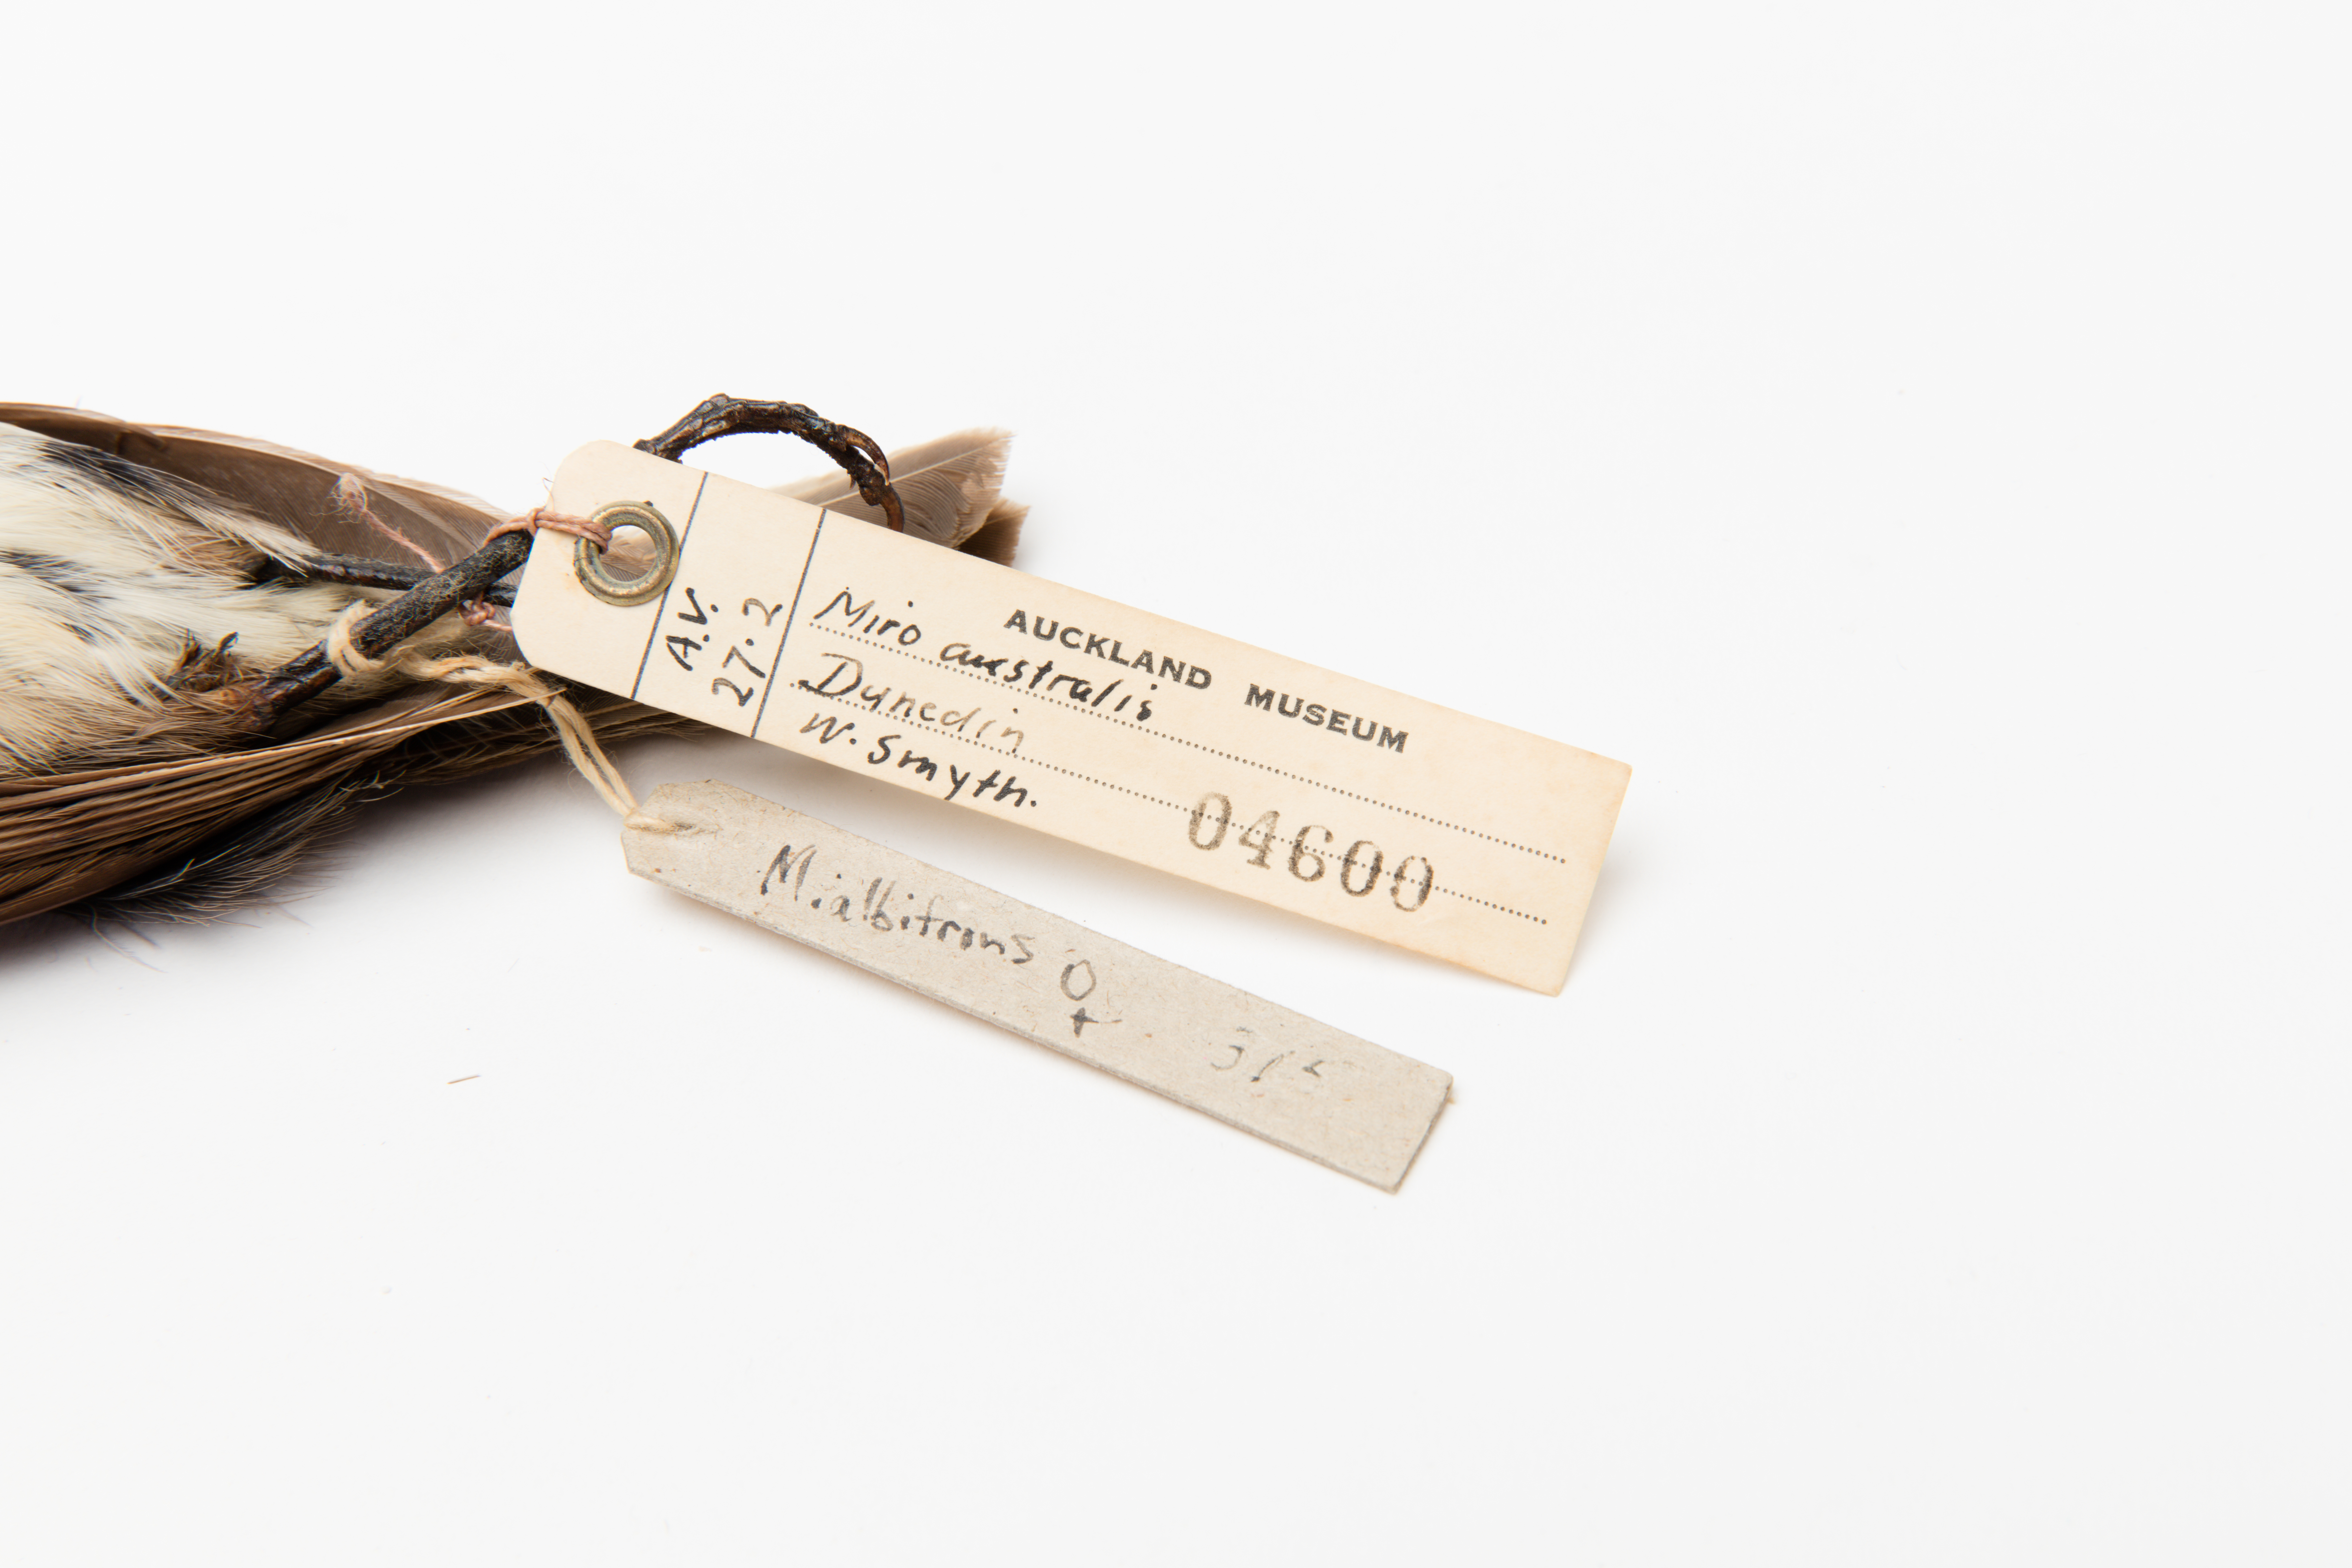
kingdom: Animalia
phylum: Chordata
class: Aves
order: Passeriformes
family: Petroicidae
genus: Petroica
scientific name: Petroica australis
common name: New zealand robin
